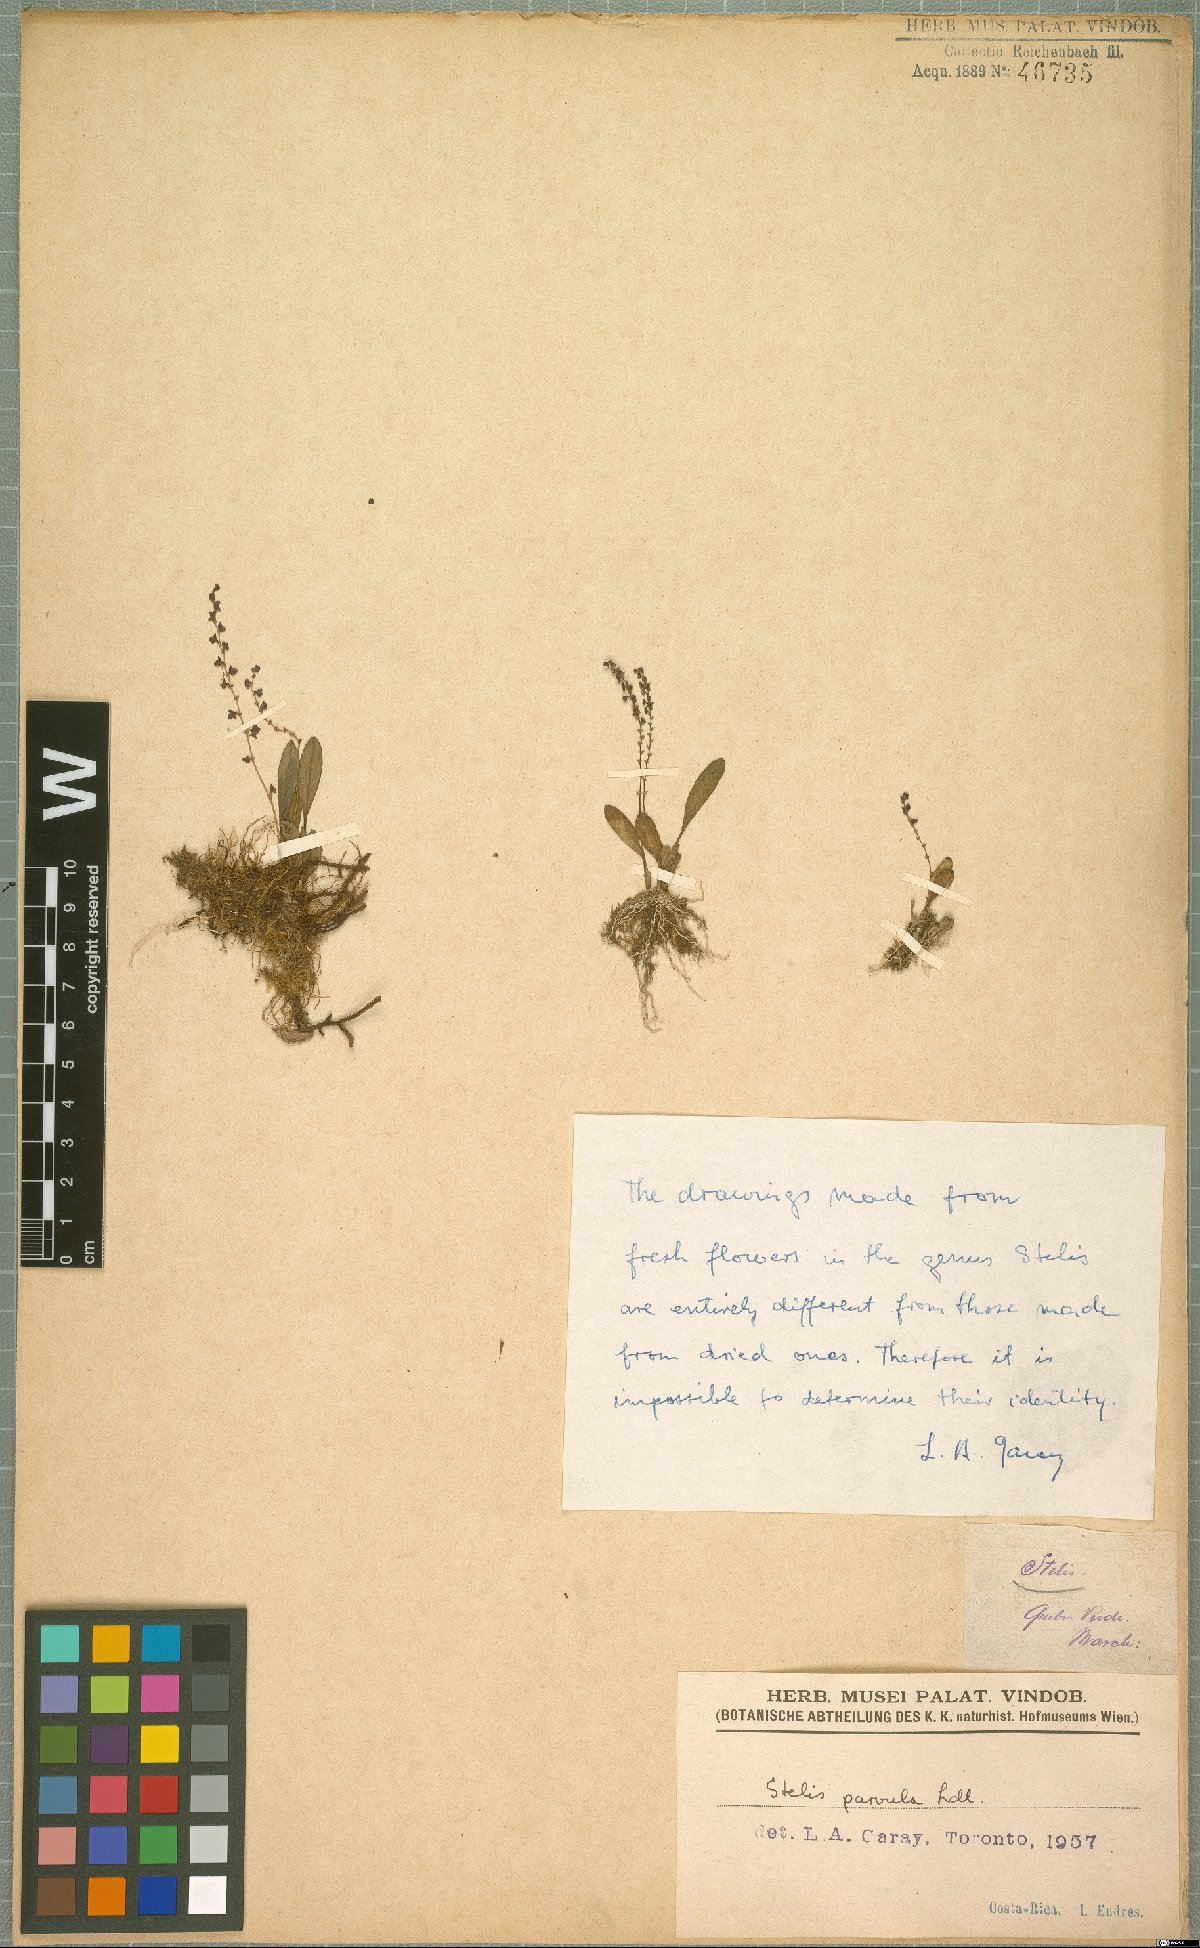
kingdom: Plantae
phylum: Tracheophyta
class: Liliopsida
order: Asparagales
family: Orchidaceae
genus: Stelis
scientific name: Stelis parvula
